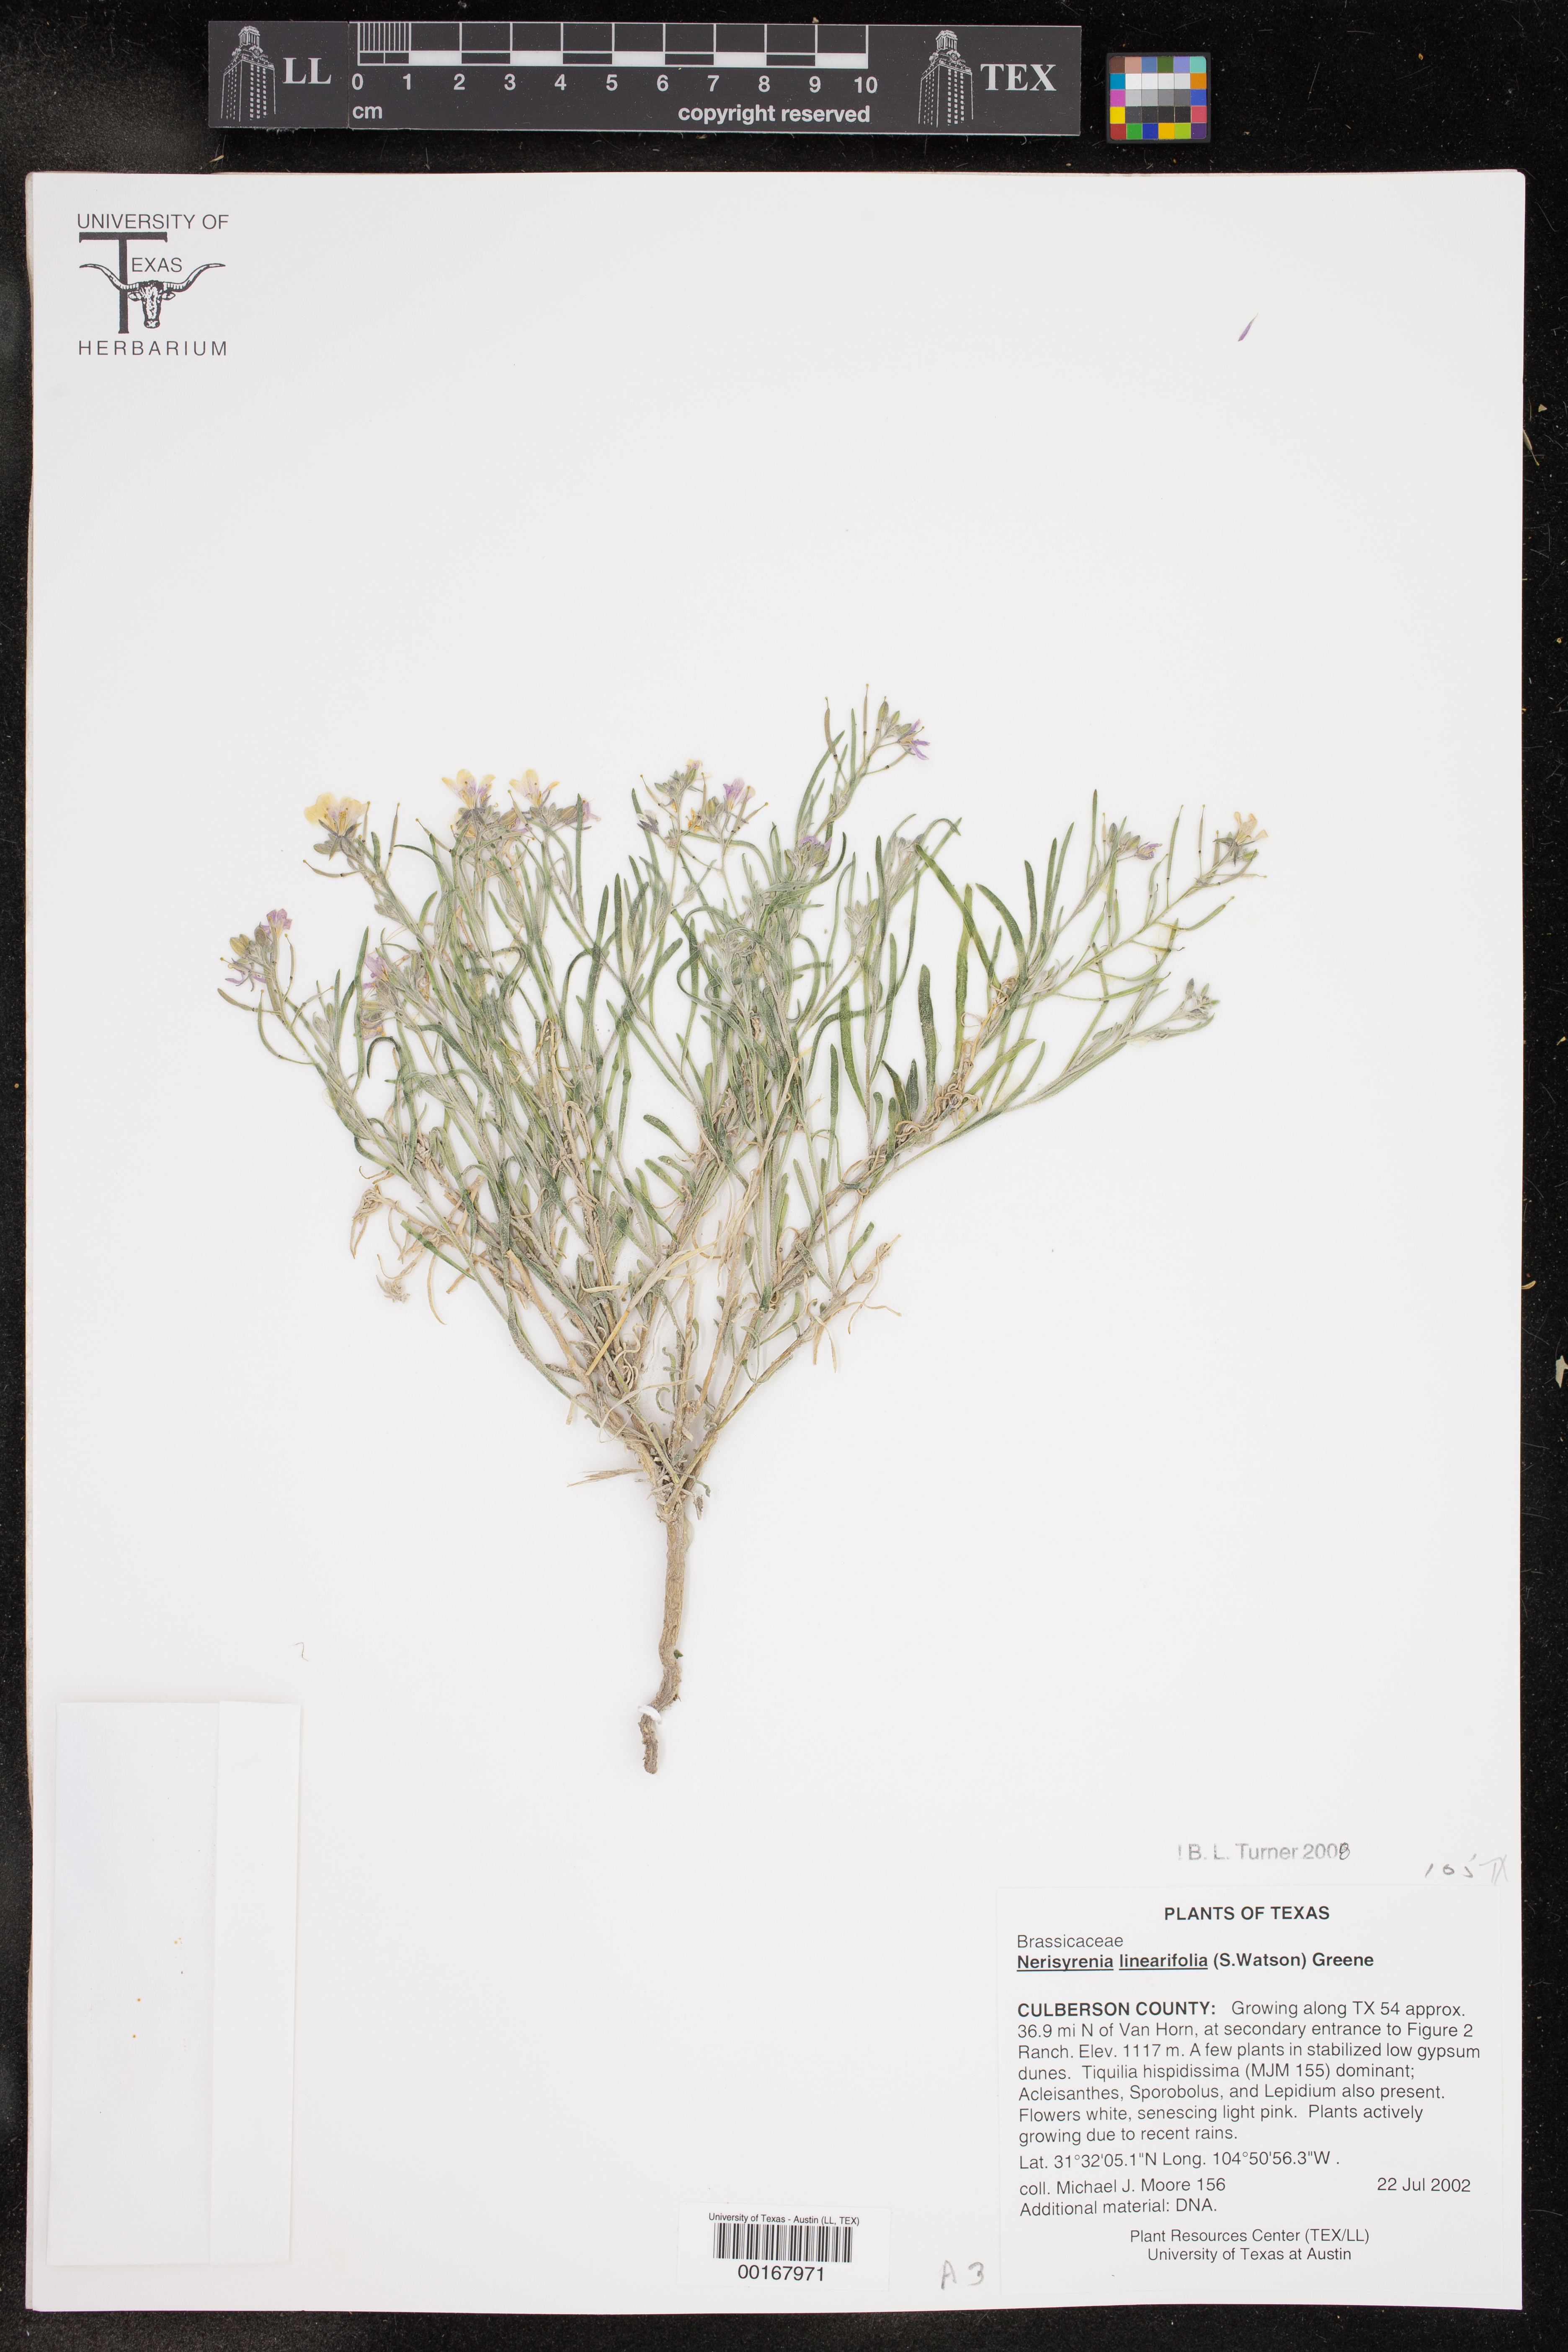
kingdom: Plantae
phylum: Tracheophyta
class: Magnoliopsida
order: Brassicales
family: Brassicaceae
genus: Nerisyrenia
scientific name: Nerisyrenia linearifolia
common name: White sands fan mustard
